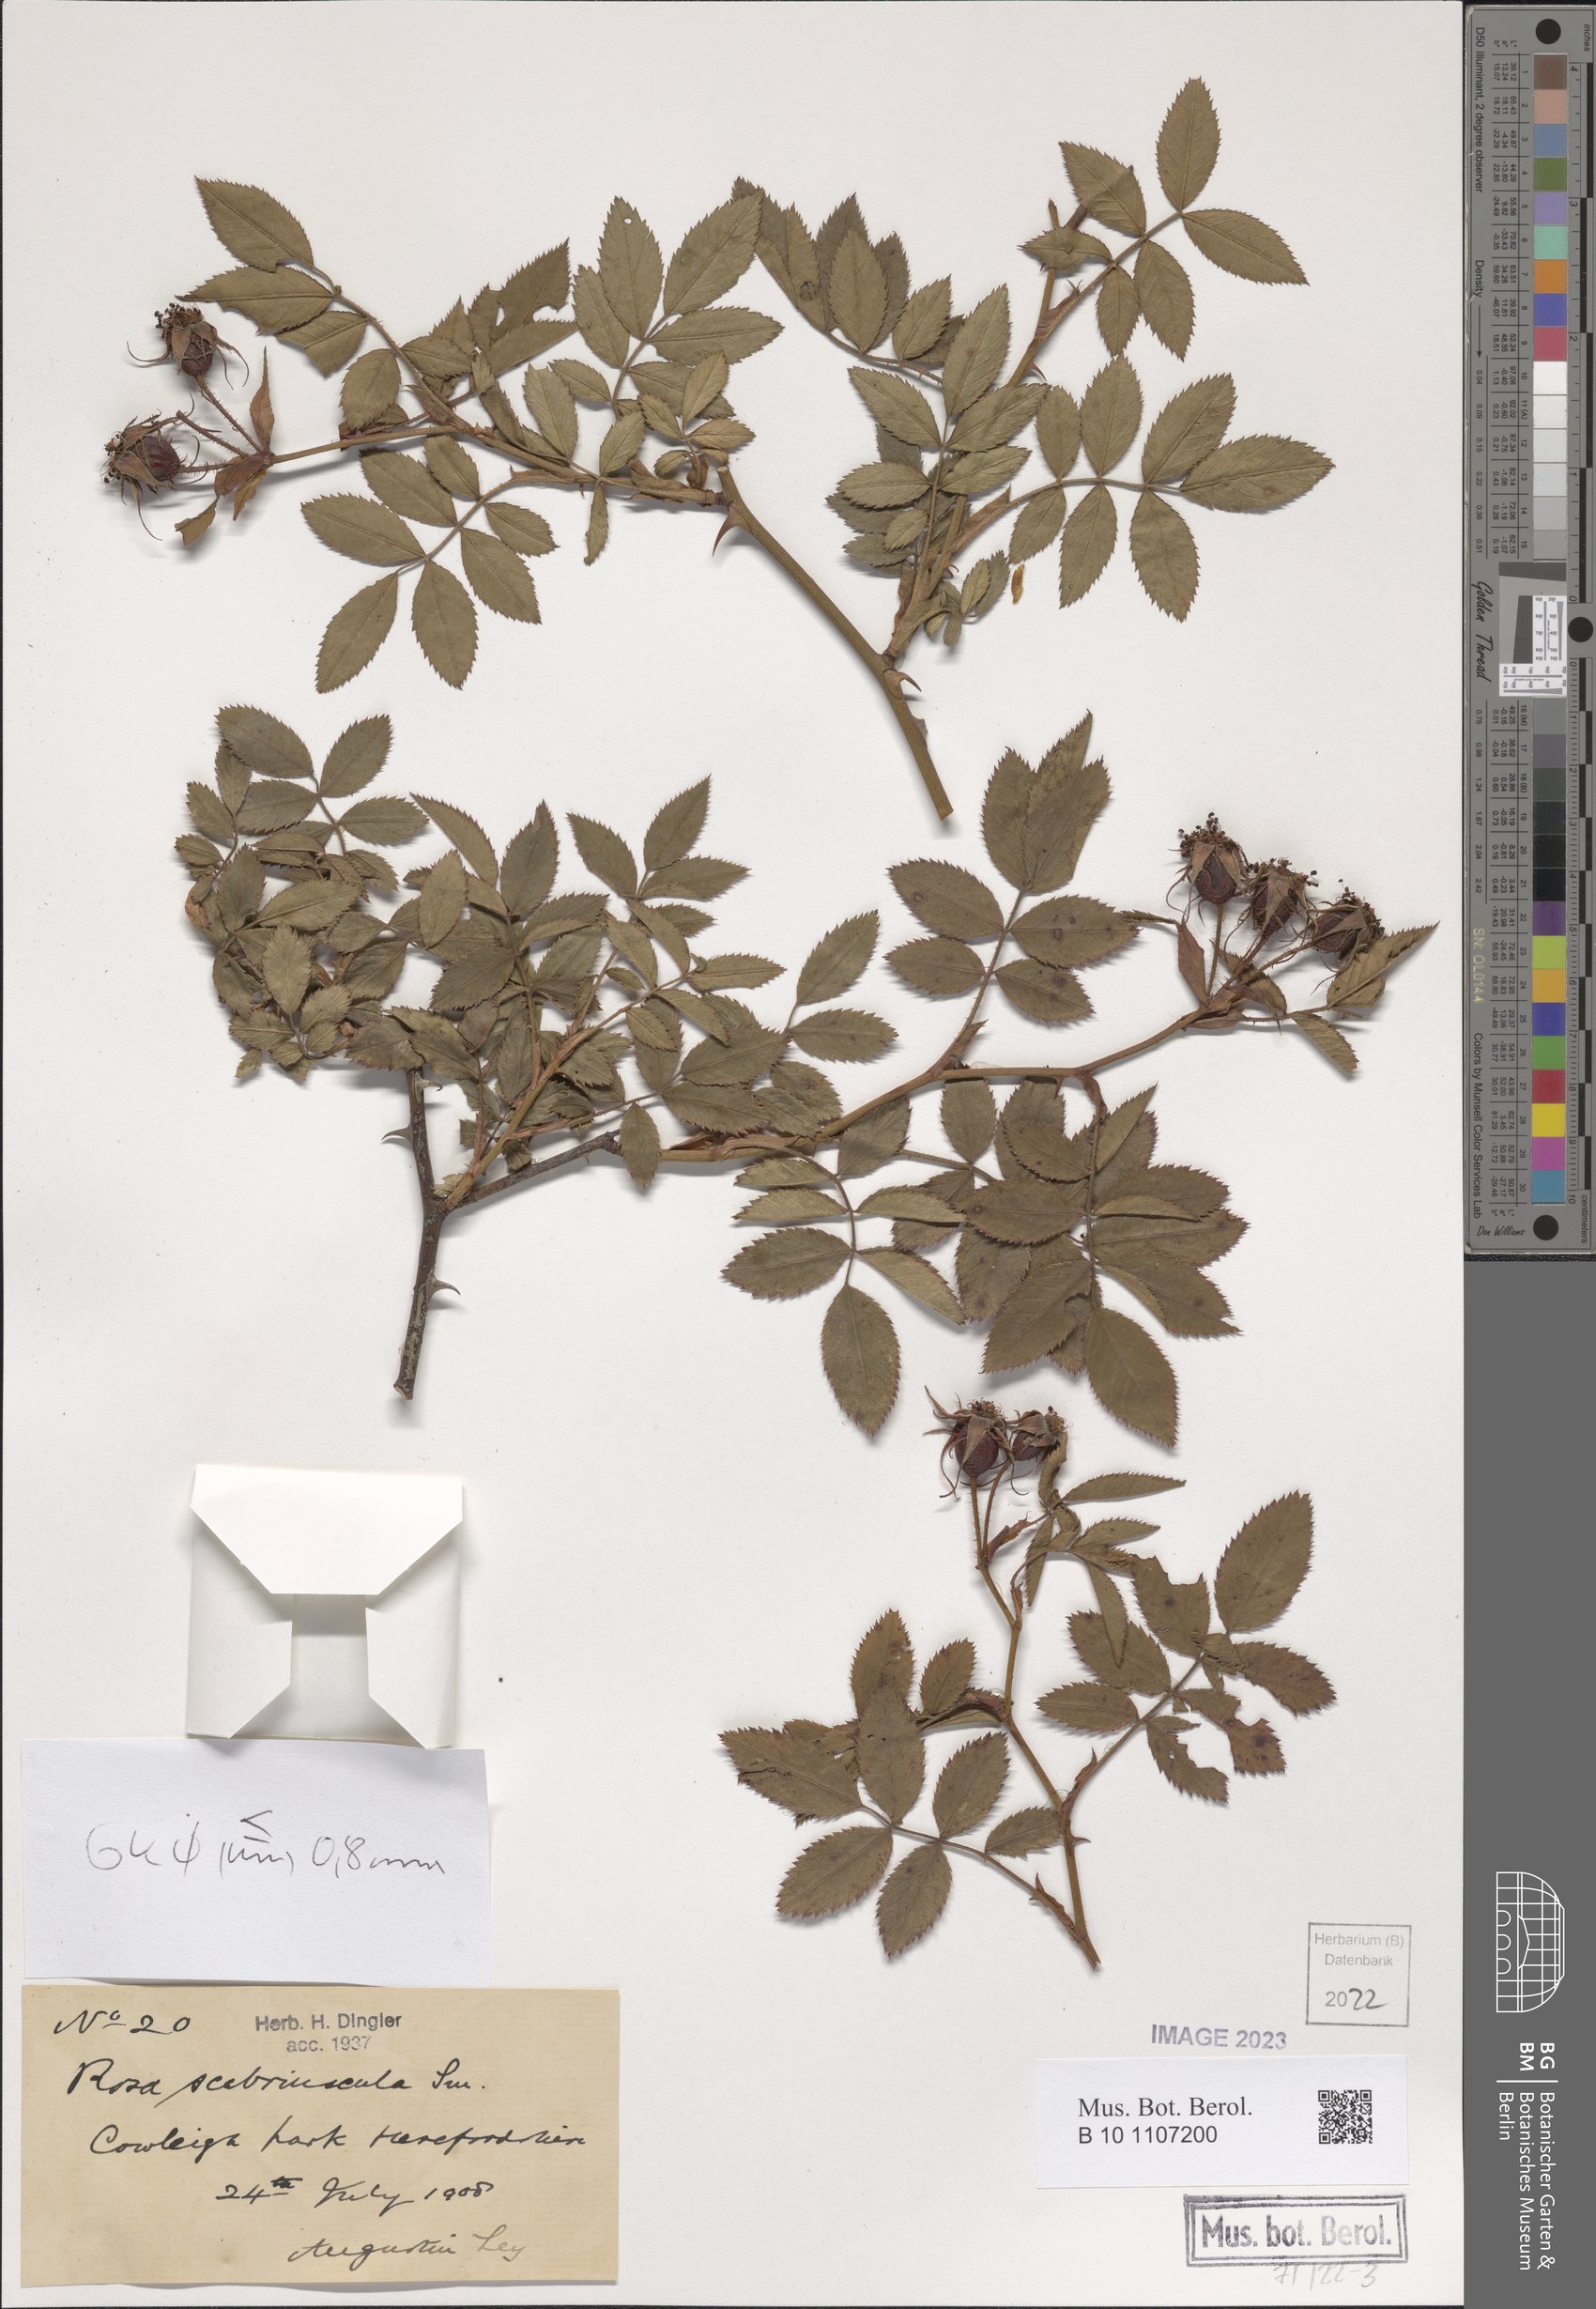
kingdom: Plantae
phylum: Tracheophyta
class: Magnoliopsida
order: Rosales
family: Rosaceae
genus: Rosa
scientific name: Rosa scabriuscula
